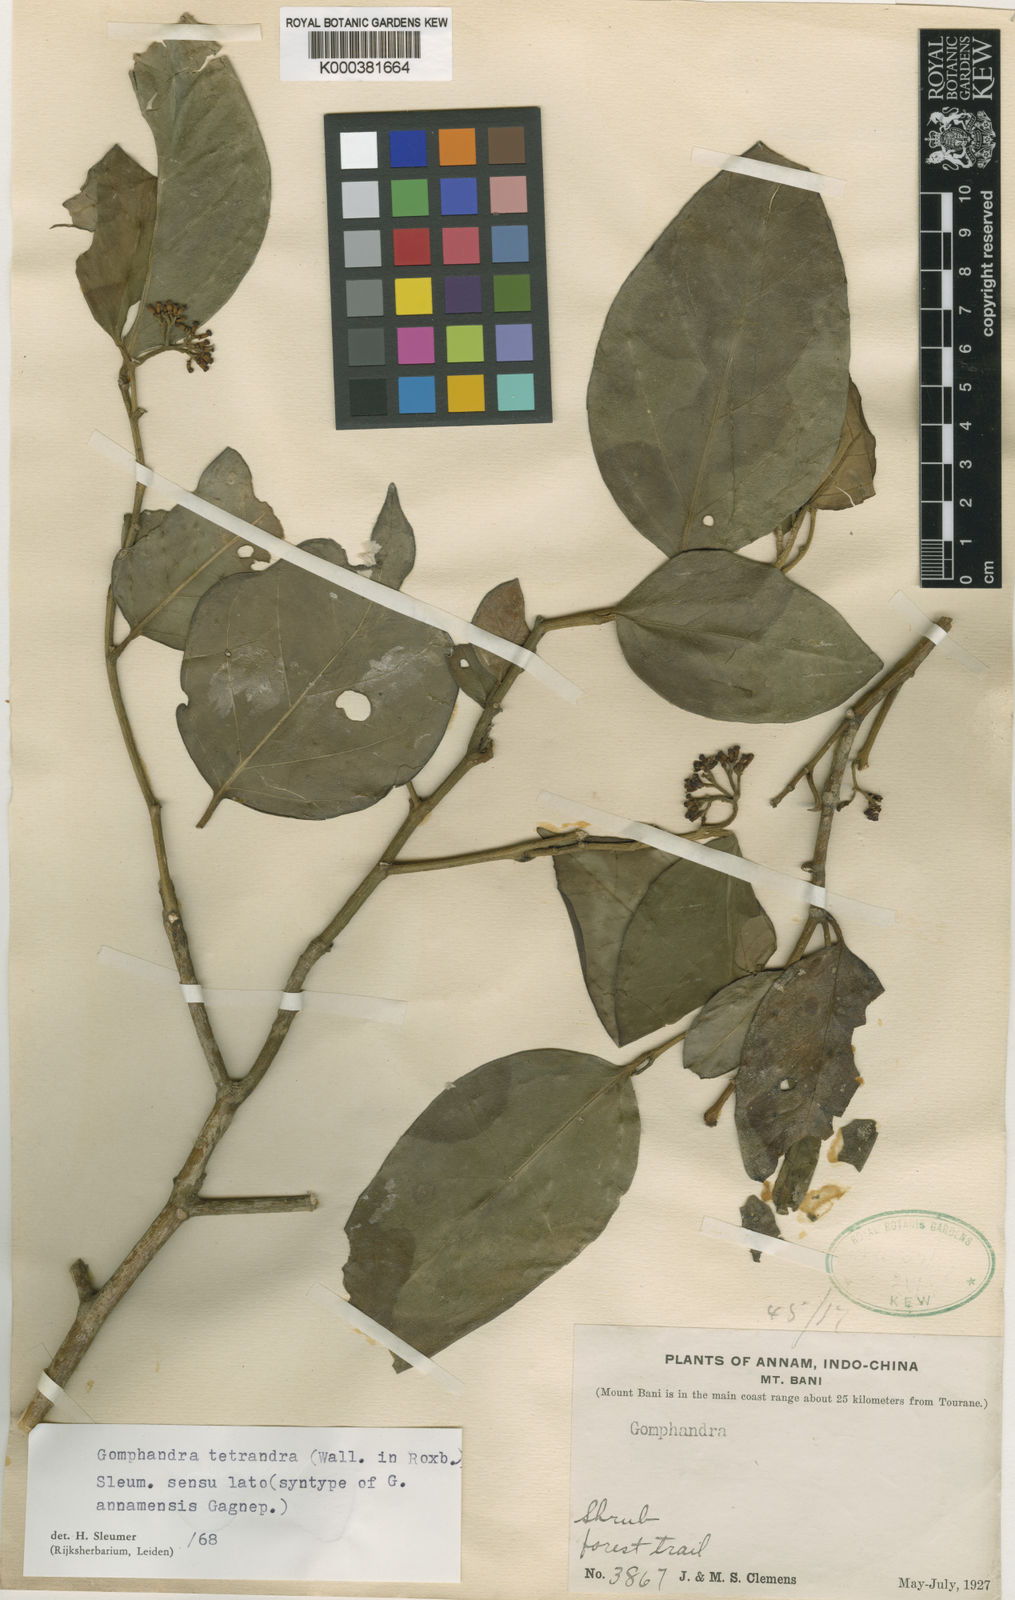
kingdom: Plantae
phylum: Tracheophyta
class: Magnoliopsida
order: Cardiopteridales
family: Stemonuraceae
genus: Gomphandra
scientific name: Gomphandra
